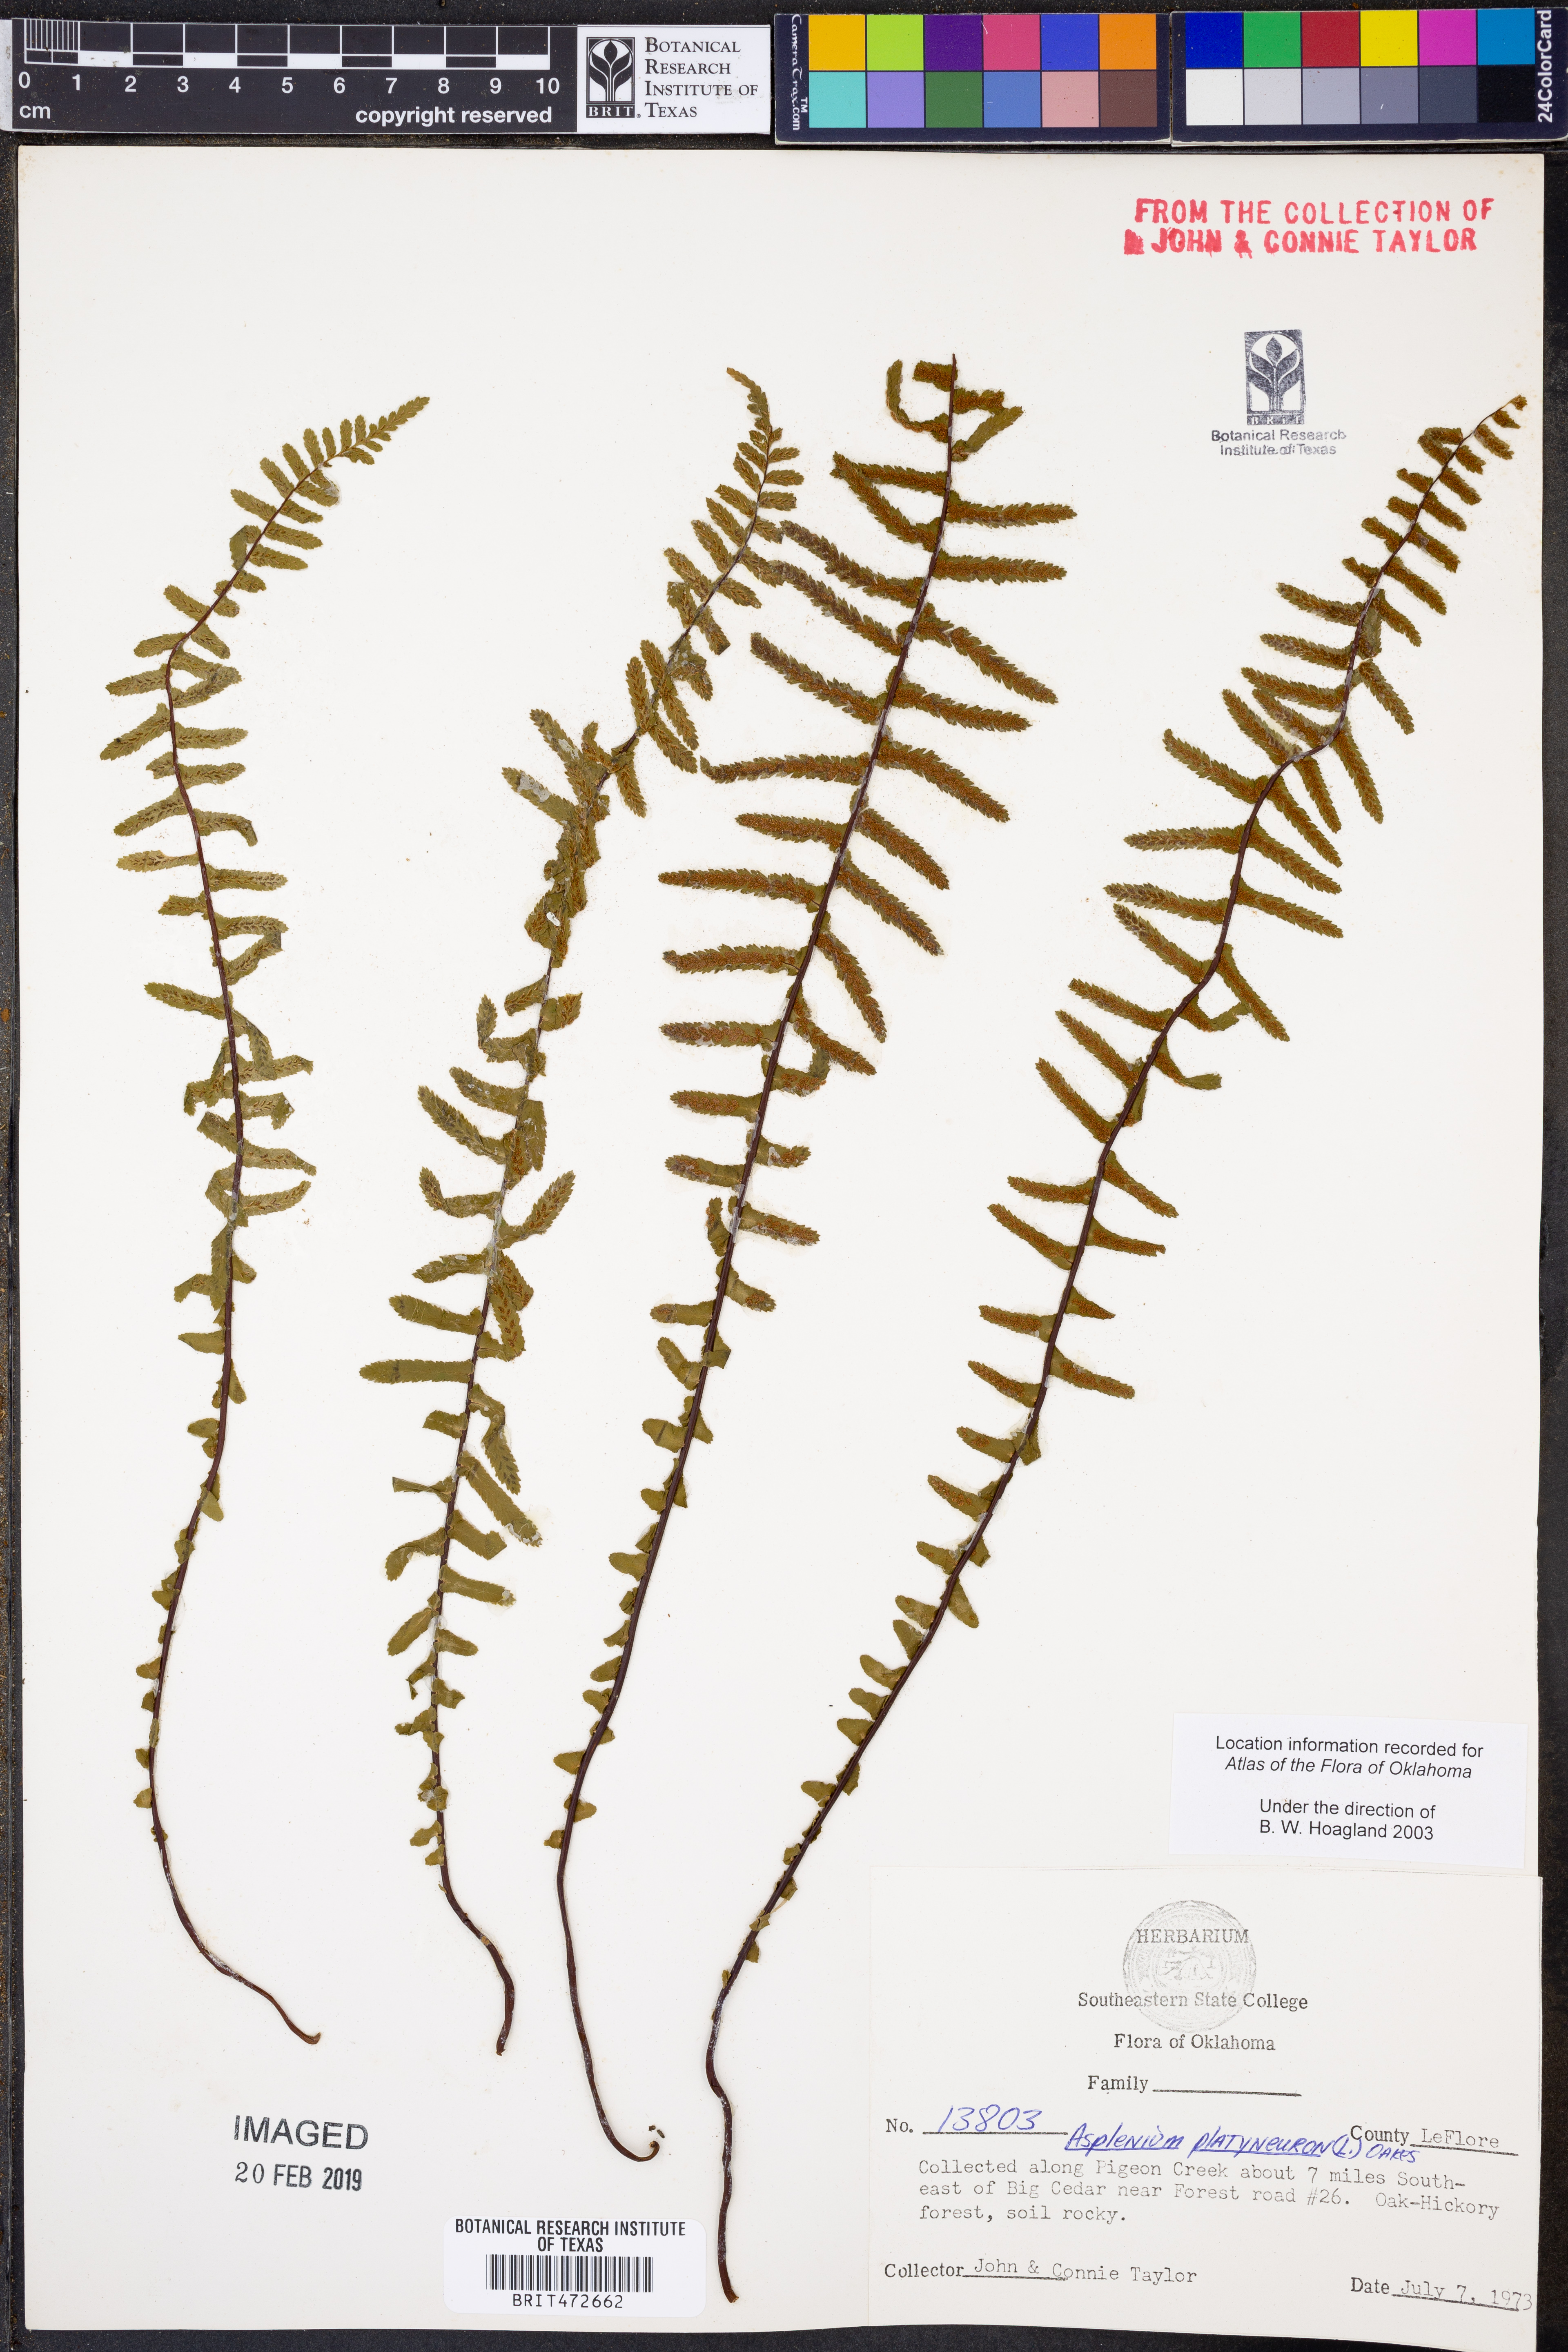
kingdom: Plantae
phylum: Tracheophyta
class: Polypodiopsida
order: Polypodiales
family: Aspleniaceae
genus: Asplenium
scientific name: Asplenium platyneuron
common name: Ebony spleenwort
